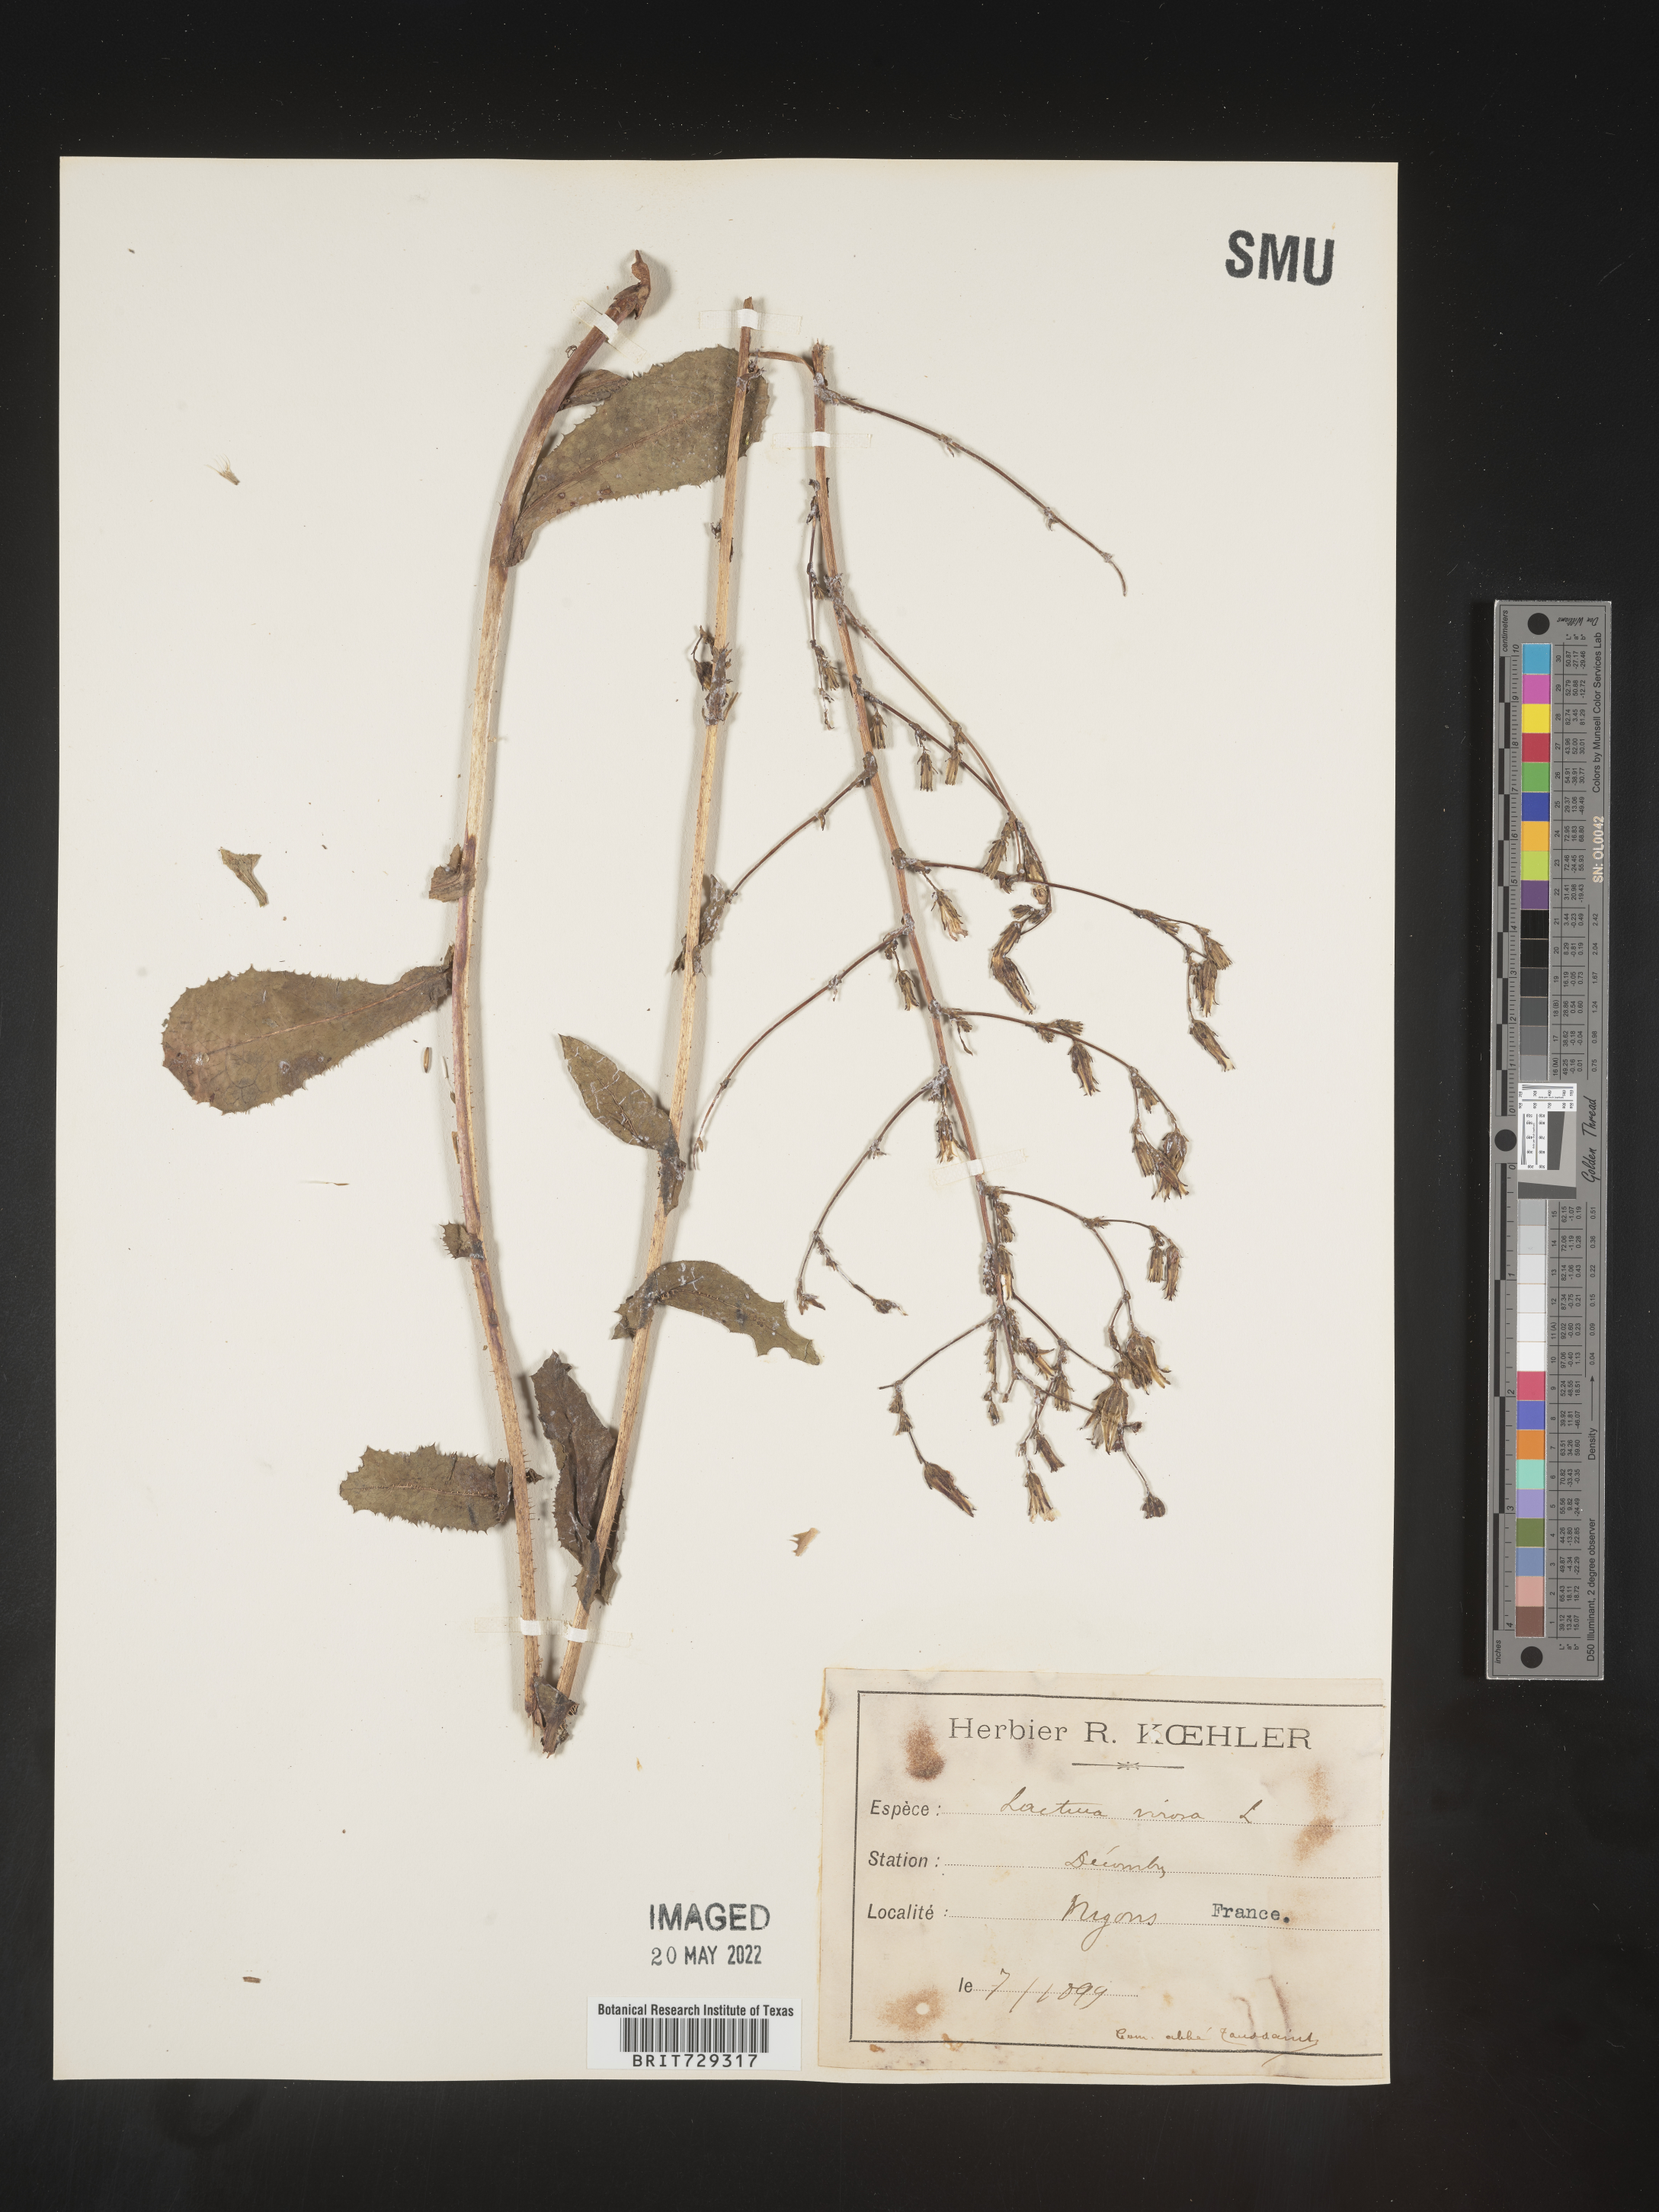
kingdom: Plantae
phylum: Tracheophyta
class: Magnoliopsida
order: Asterales
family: Asteraceae
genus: Lactuca
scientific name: Lactuca
